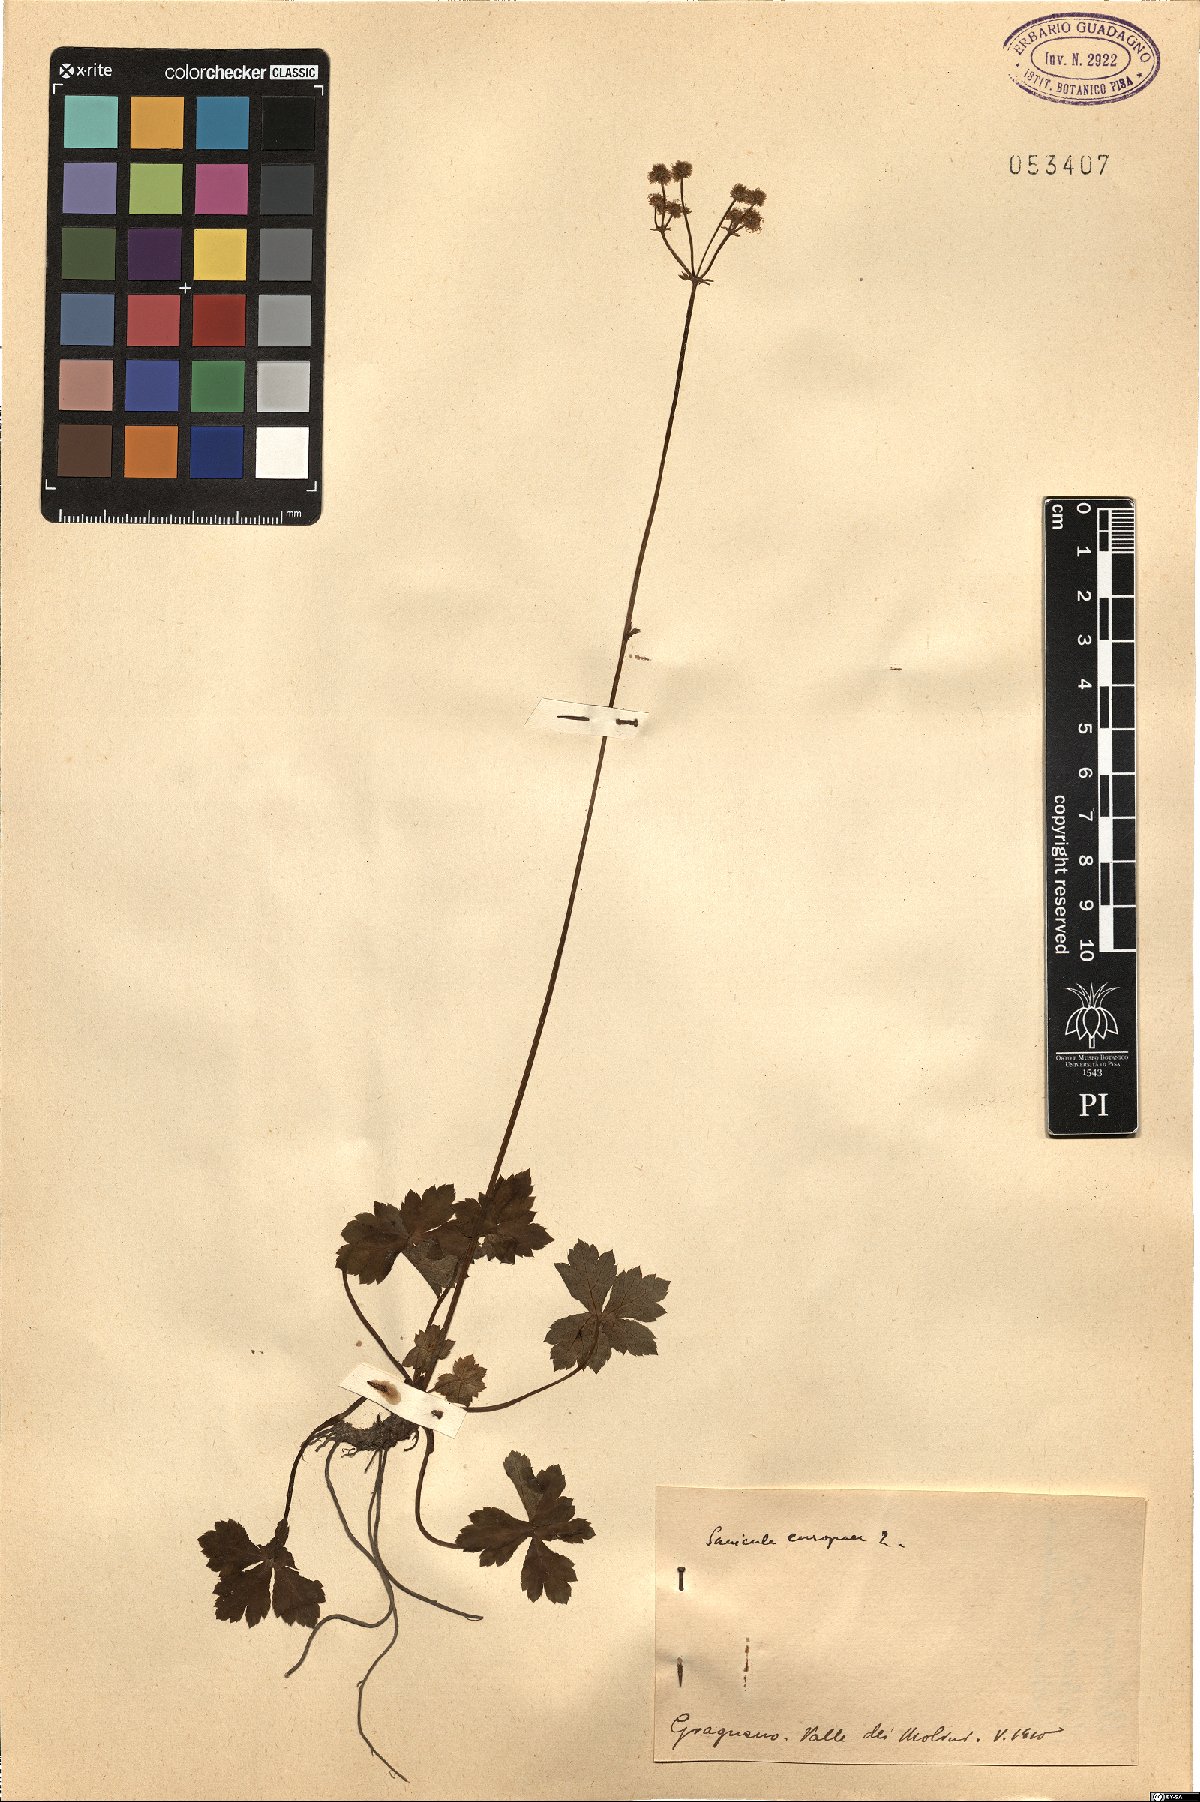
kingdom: Plantae
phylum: Tracheophyta
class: Magnoliopsida
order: Apiales
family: Apiaceae
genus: Sanicula
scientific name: Sanicula europaea
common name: Sanicle
